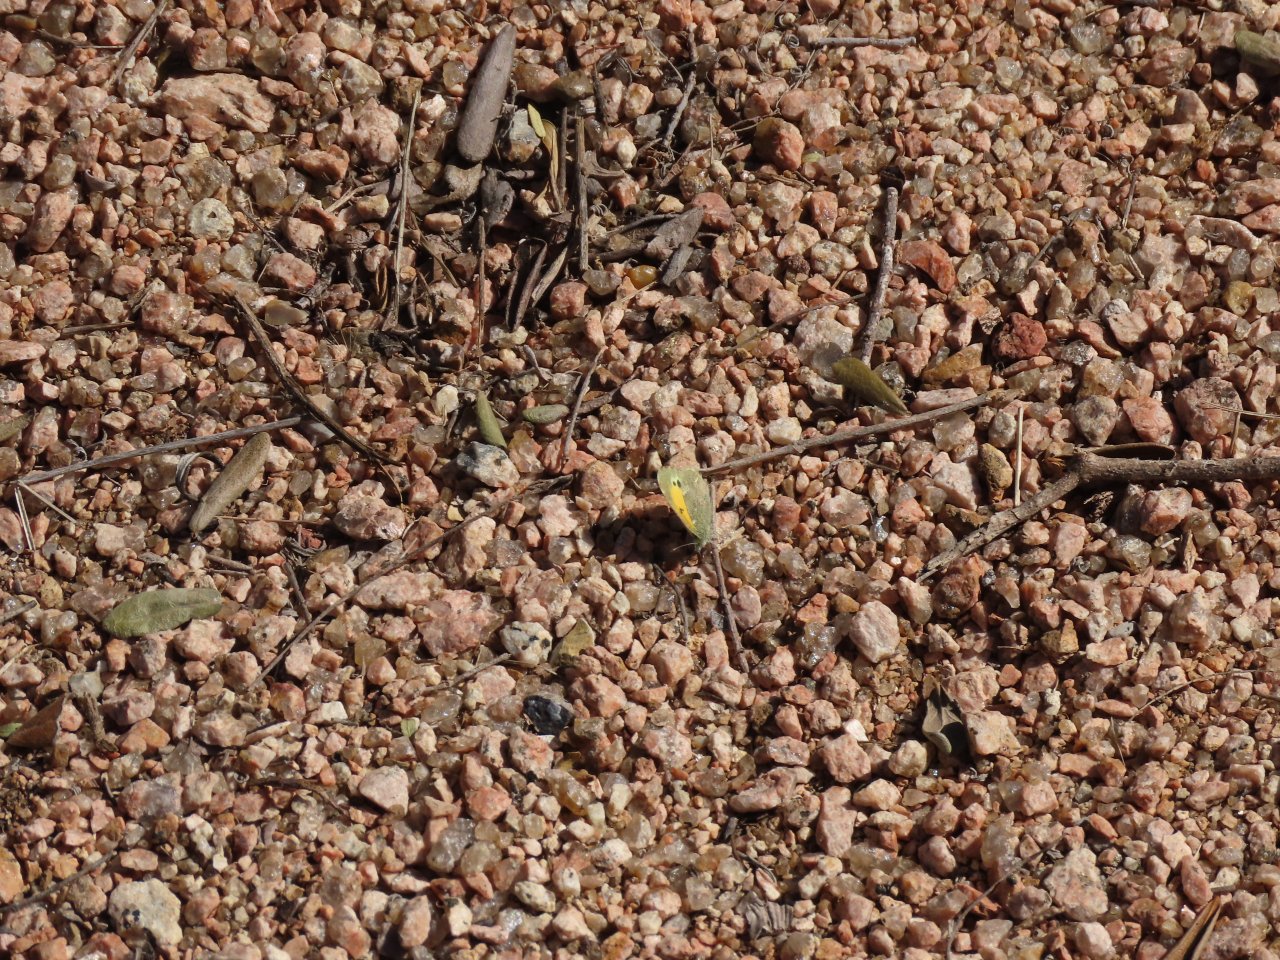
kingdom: Animalia
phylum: Arthropoda
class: Insecta
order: Lepidoptera
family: Pieridae
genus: Nathalis
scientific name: Nathalis iole
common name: Dainty Sulphur
